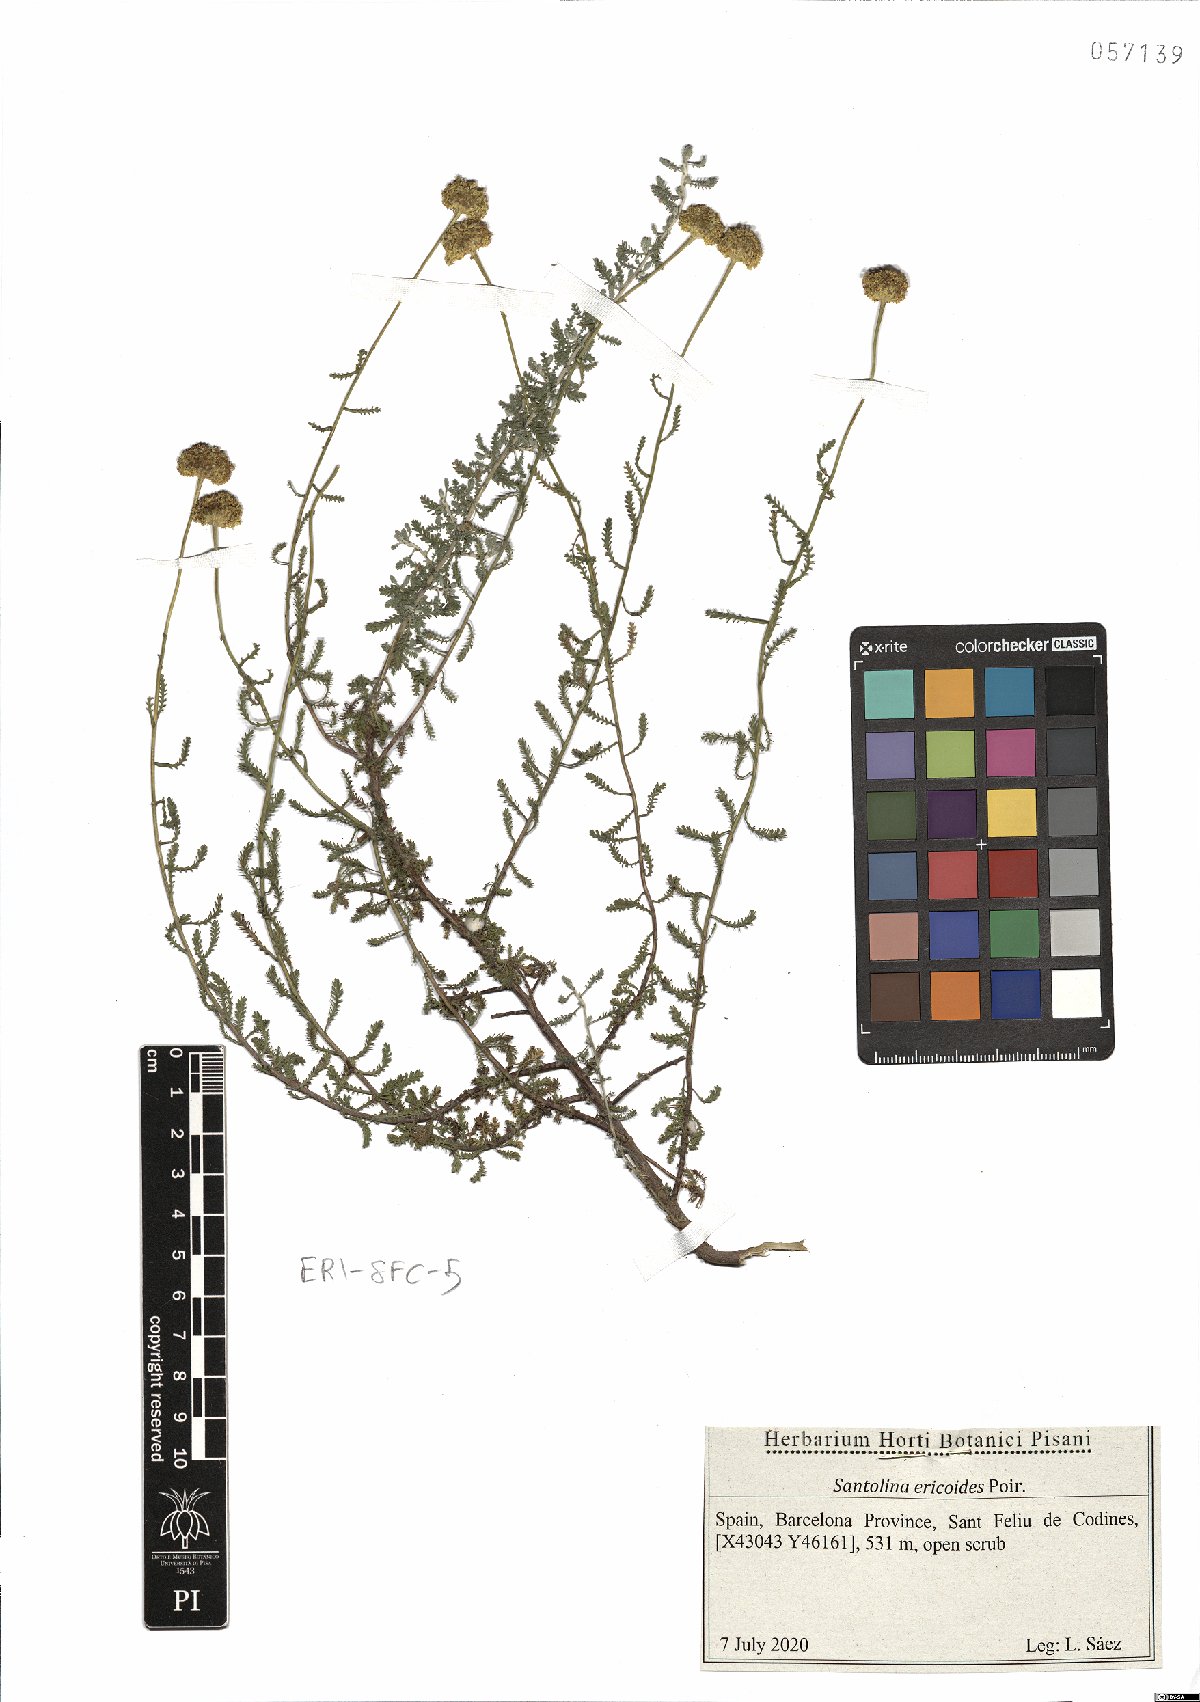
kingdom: Plantae
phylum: Tracheophyta
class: Magnoliopsida
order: Asterales
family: Asteraceae
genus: Santolina
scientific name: Santolina ericoides
